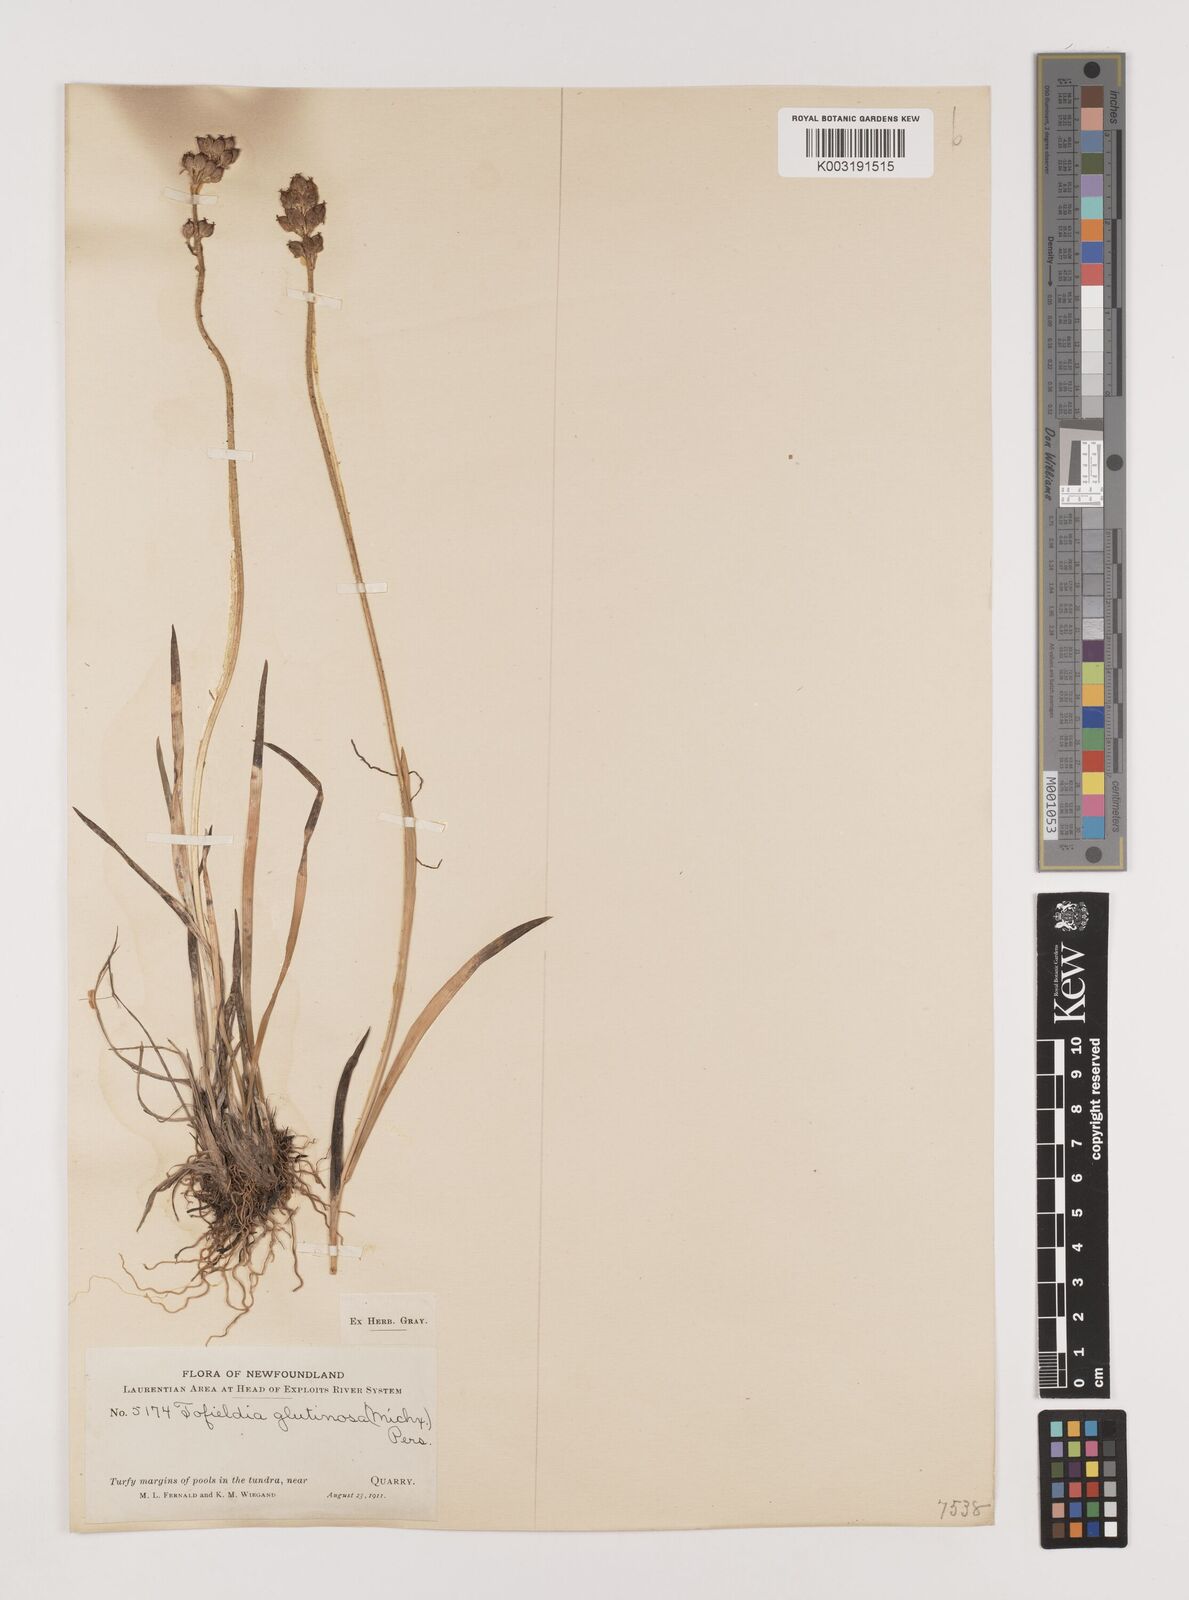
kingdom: Plantae
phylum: Tracheophyta
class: Liliopsida
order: Alismatales
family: Tofieldiaceae
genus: Triantha
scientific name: Triantha glutinosa
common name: Glutinous tofieldia
